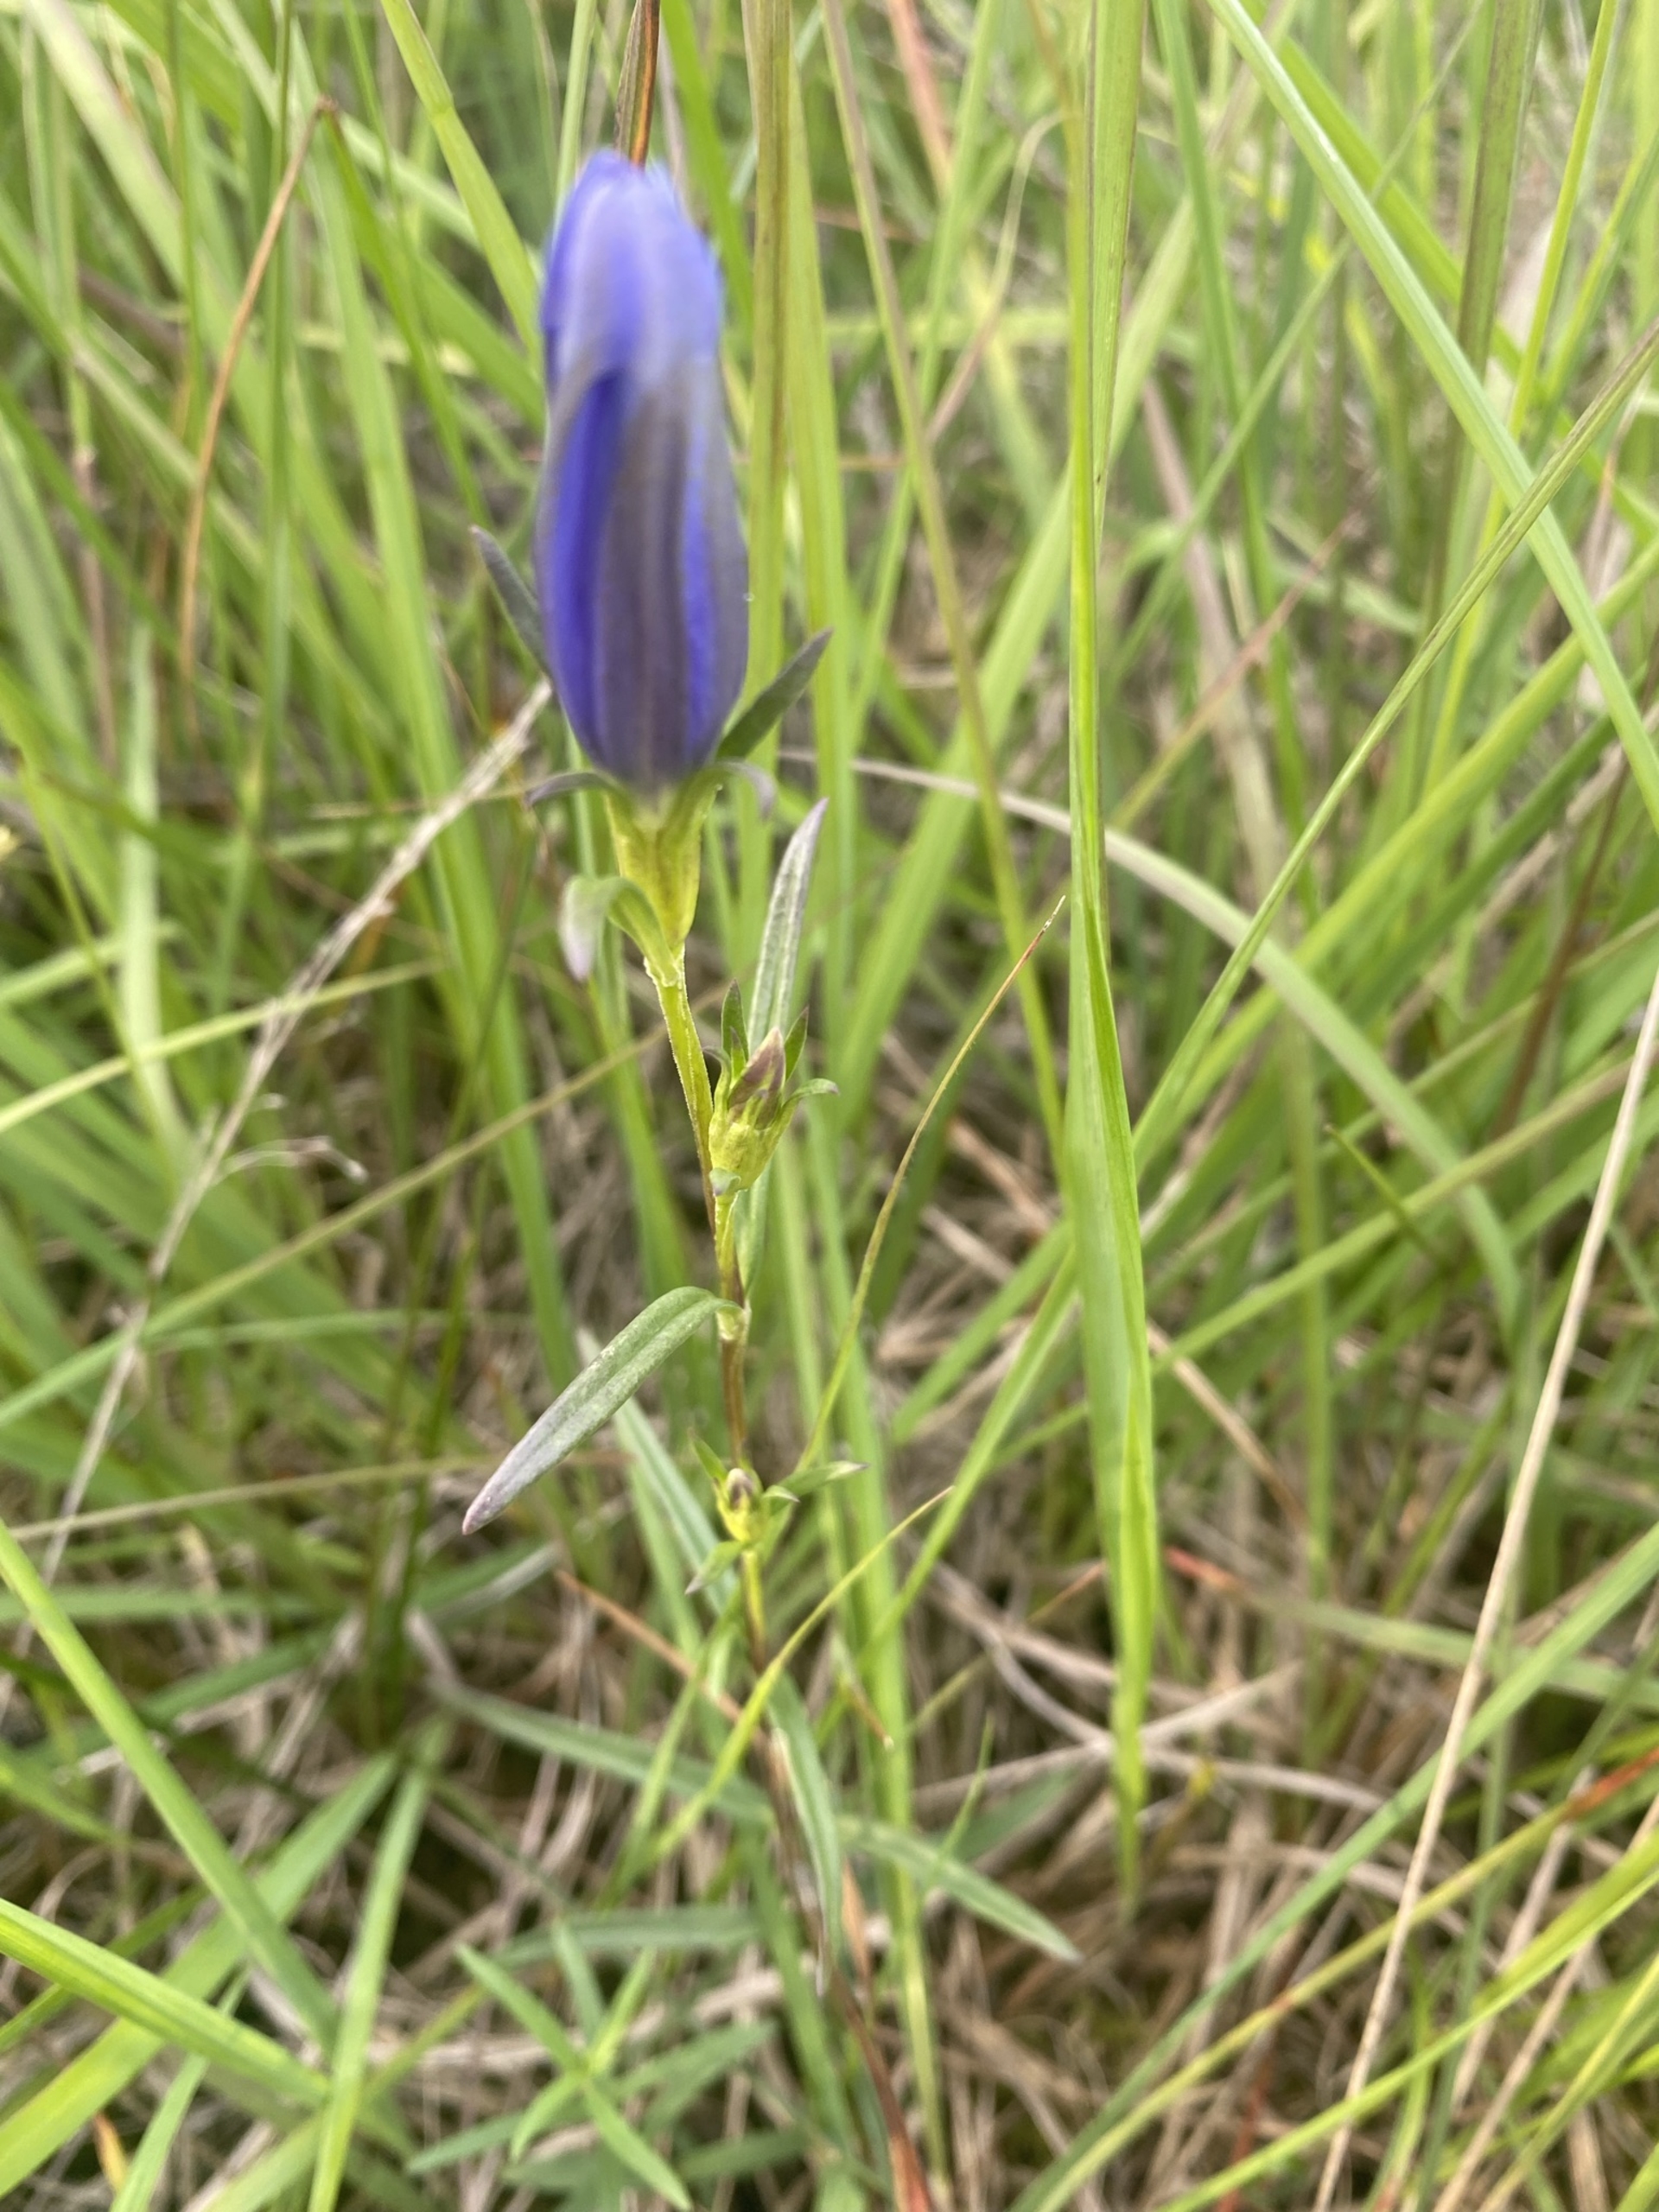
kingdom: Plantae
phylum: Tracheophyta
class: Magnoliopsida
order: Gentianales
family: Gentianaceae
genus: Gentiana
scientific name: Gentiana pneumonanthe
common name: Klokke-ensian
